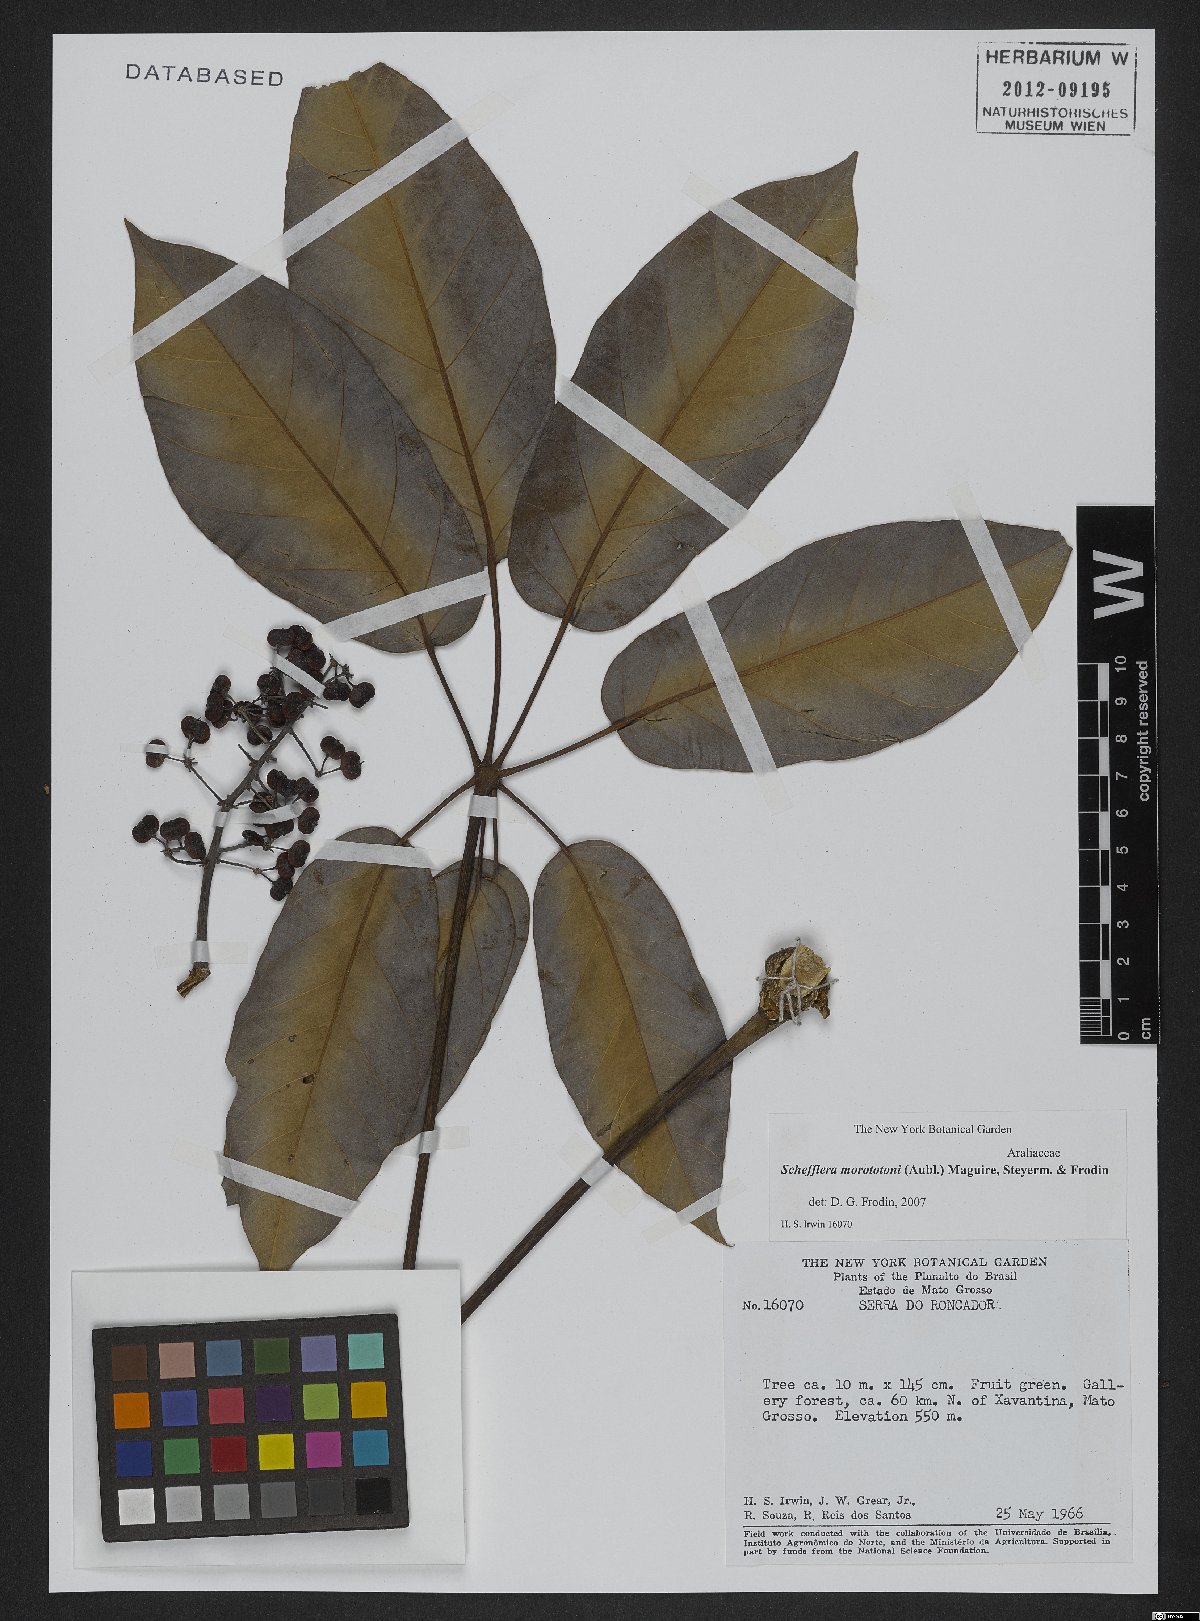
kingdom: Plantae
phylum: Tracheophyta
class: Magnoliopsida
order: Apiales
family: Araliaceae
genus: Didymopanax
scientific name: Didymopanax morototoni
